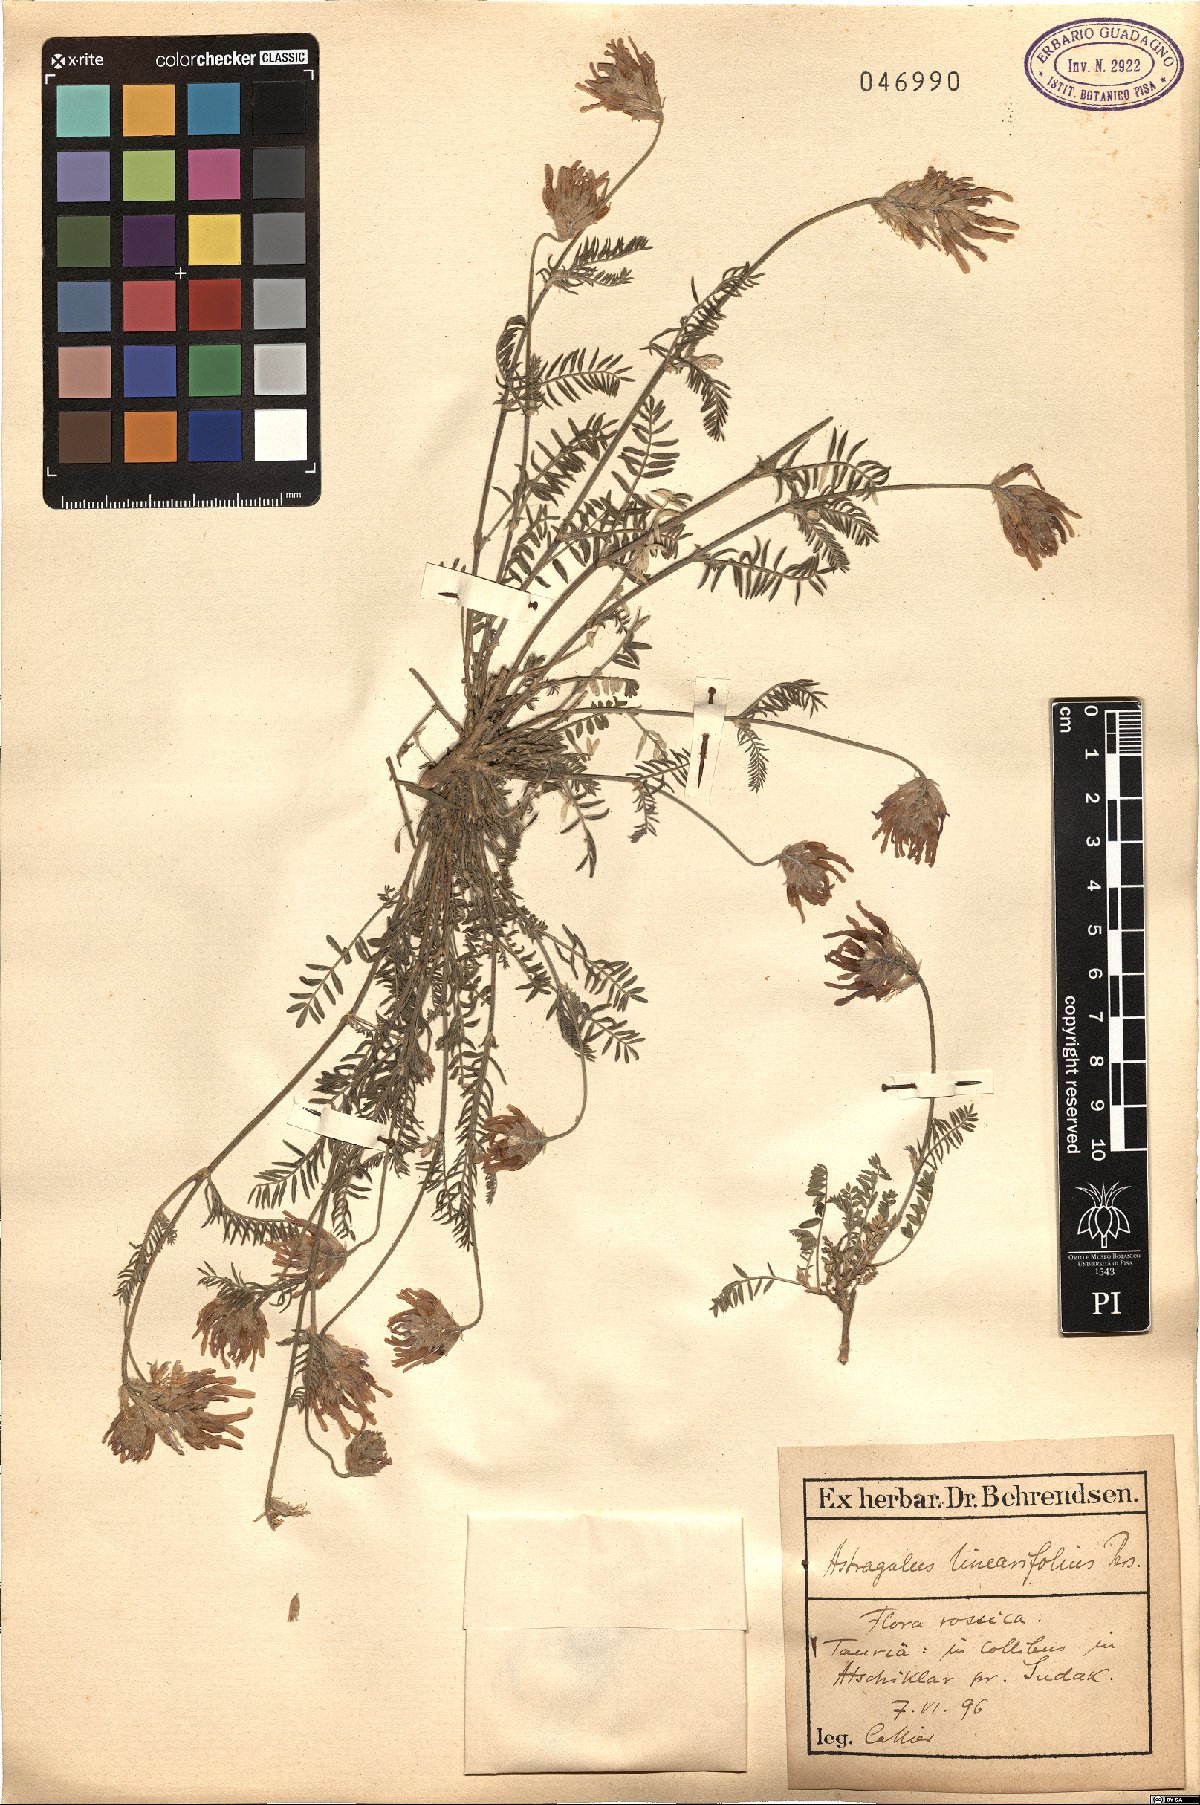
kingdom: Plantae
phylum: Tracheophyta
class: Magnoliopsida
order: Fabales
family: Fabaceae
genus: Astragalus
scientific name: Astragalus onobrychis
